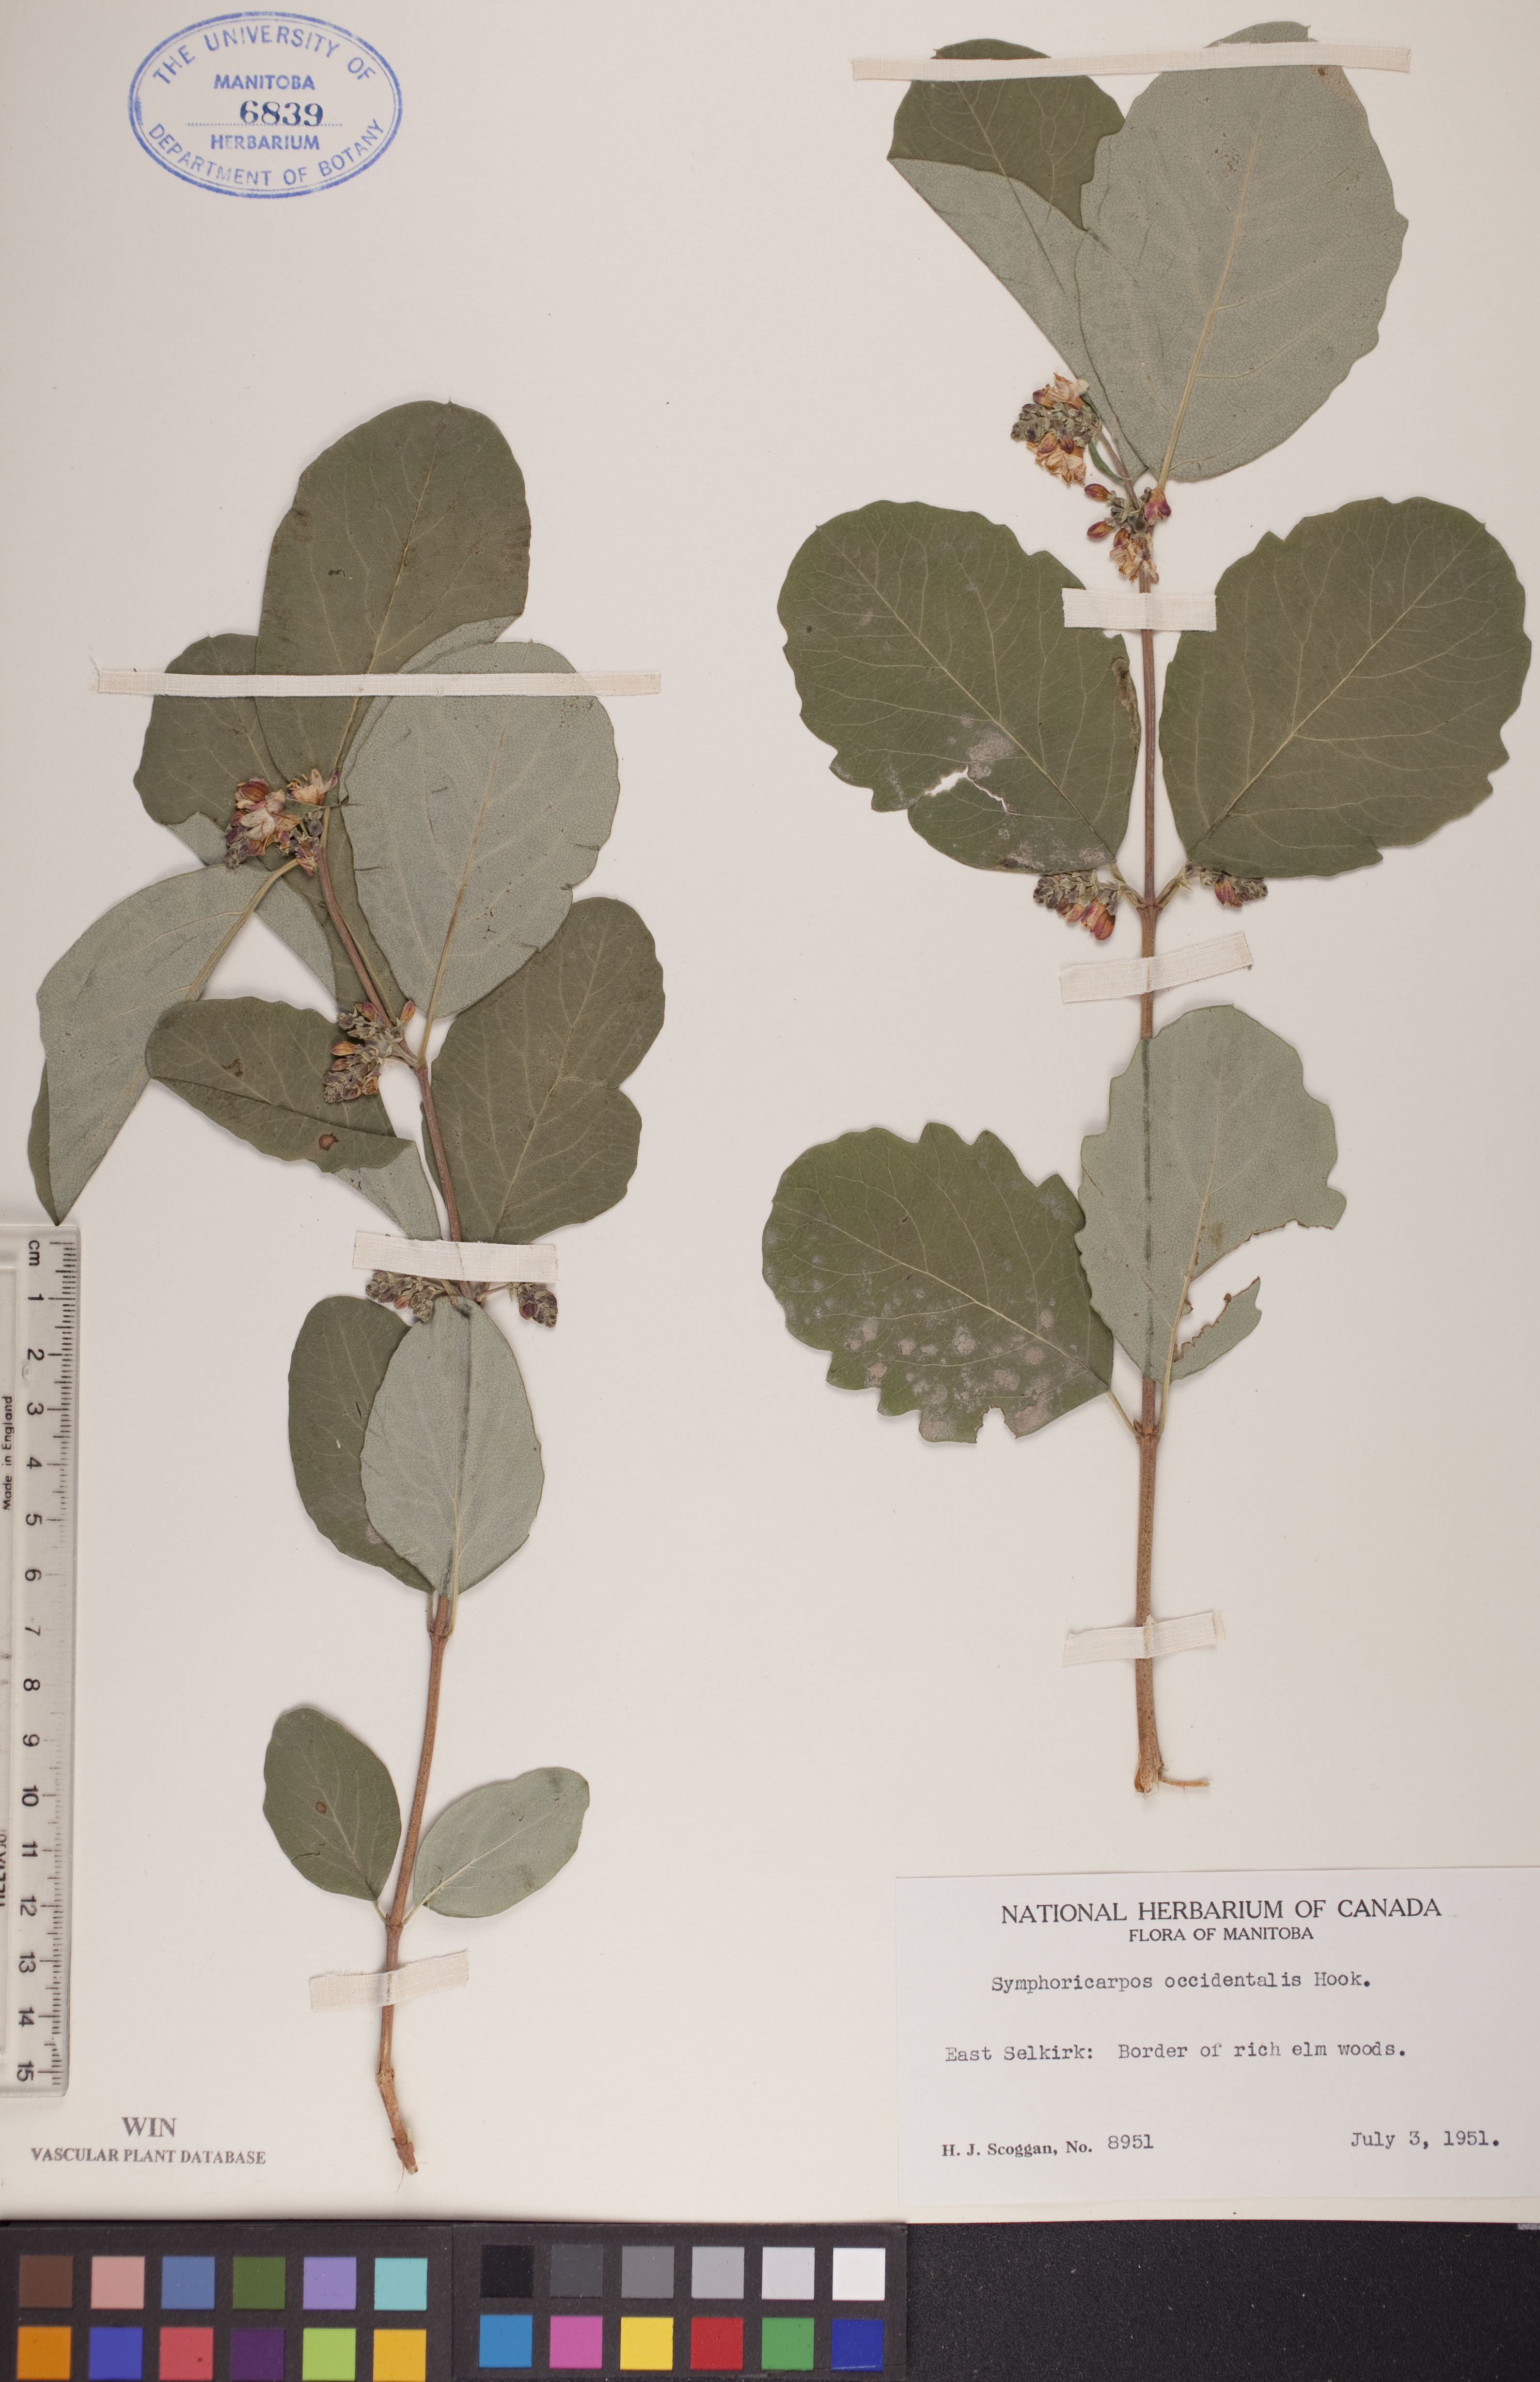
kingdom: Plantae
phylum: Tracheophyta
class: Magnoliopsida
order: Dipsacales
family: Caprifoliaceae
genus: Symphoricarpos
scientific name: Symphoricarpos occidentalis
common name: Wolfberry
